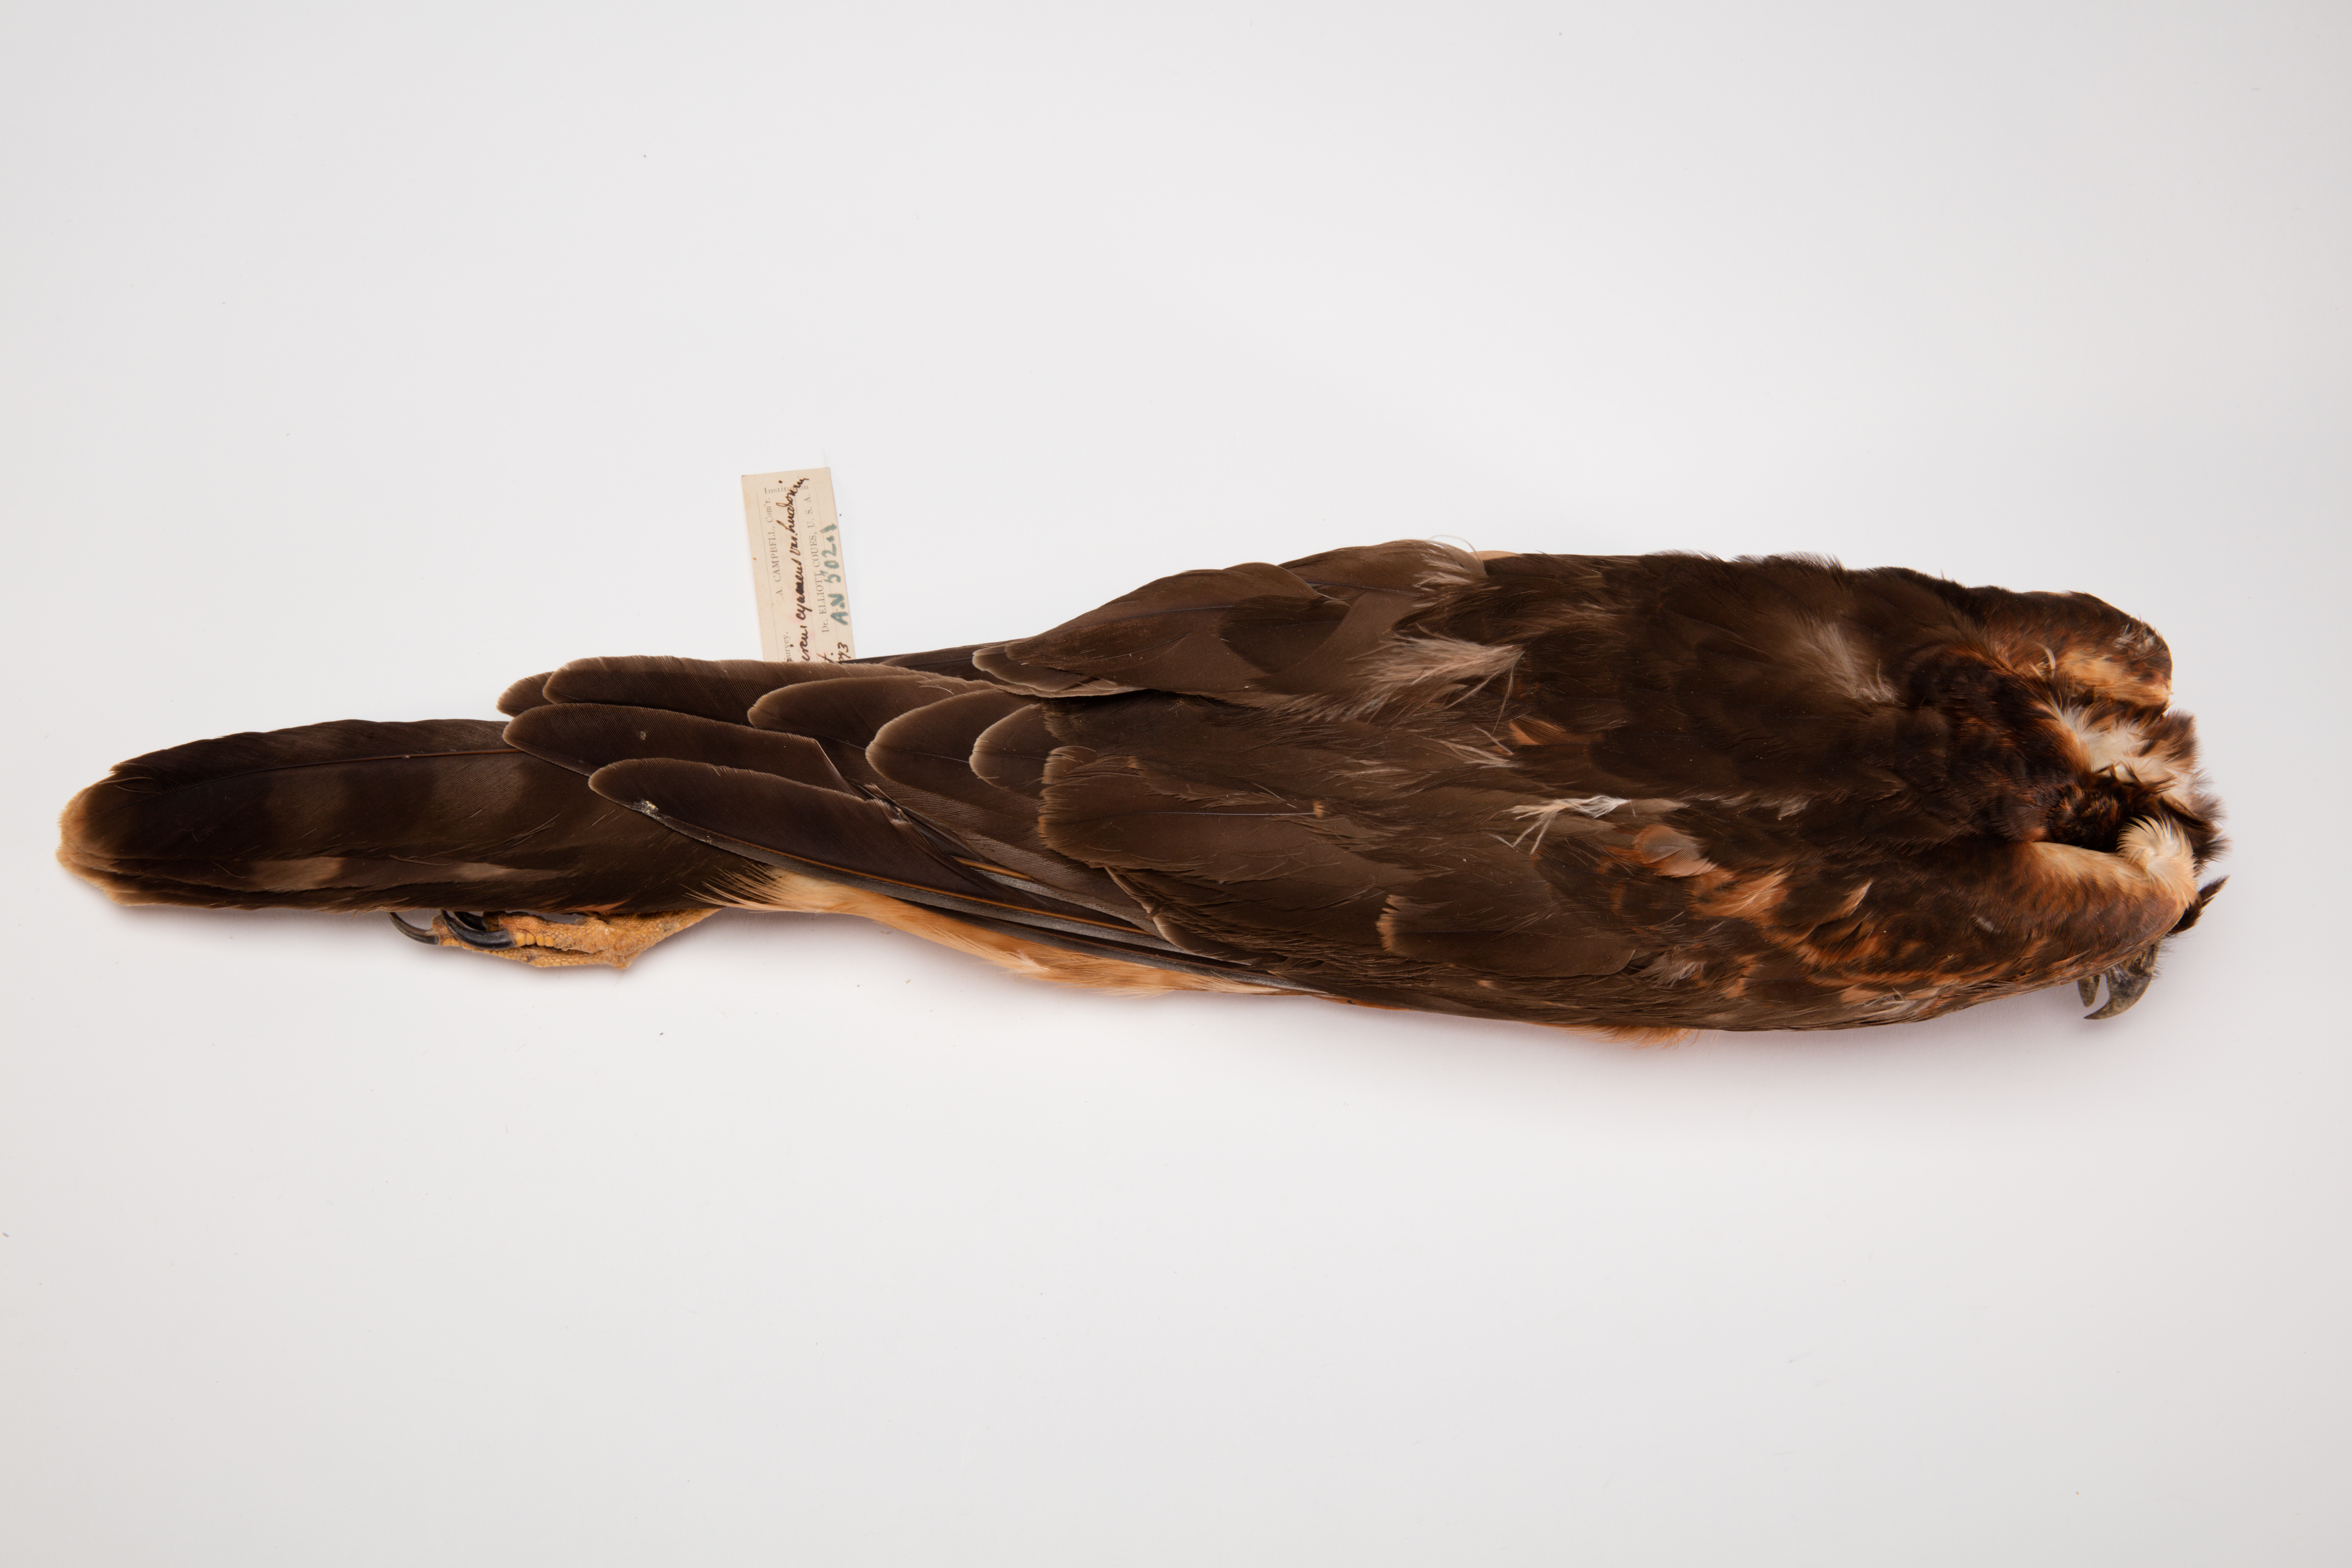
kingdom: Animalia
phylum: Chordata
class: Aves
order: Accipitriformes
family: Accipitridae
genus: Circus
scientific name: Circus cyaneus
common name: Hen harrier
